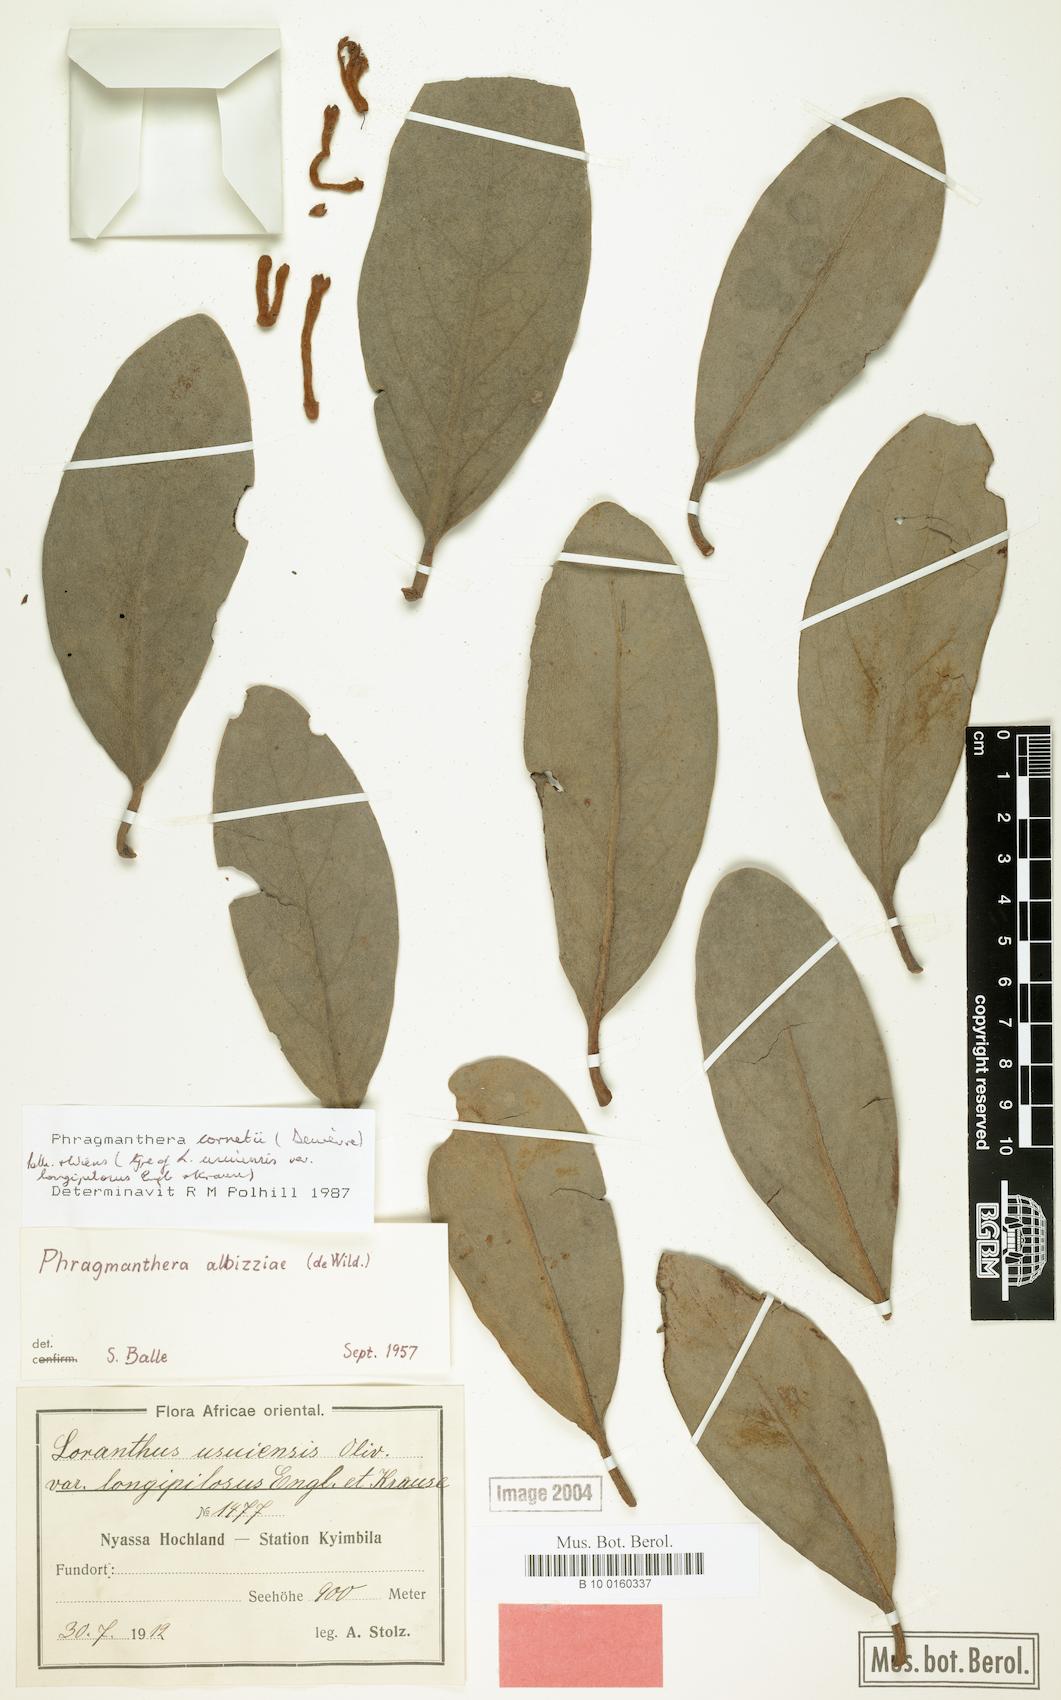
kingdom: Plantae
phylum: Tracheophyta
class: Magnoliopsida
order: Santalales
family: Loranthaceae
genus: Phragmanthera
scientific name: Phragmanthera cornetii
